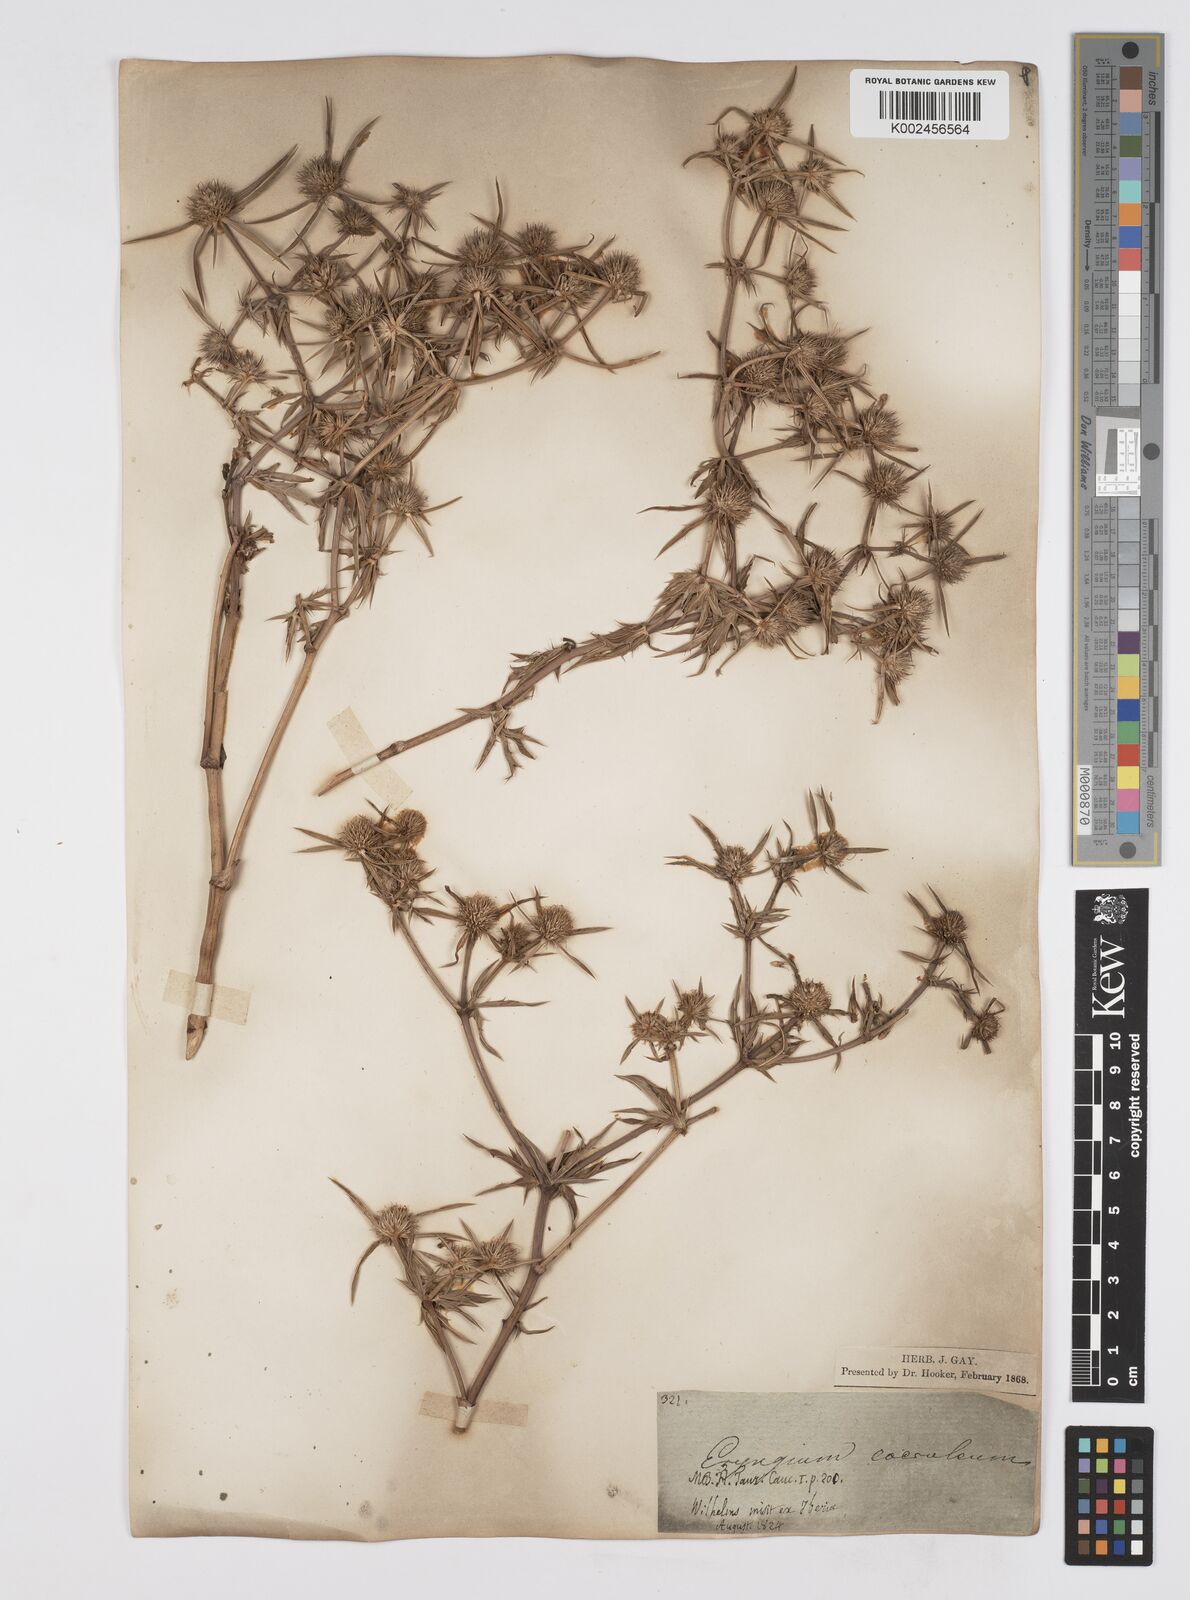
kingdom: Plantae
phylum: Tracheophyta
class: Magnoliopsida
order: Apiales
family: Apiaceae
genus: Eryngium
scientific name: Eryngium caeruleum
